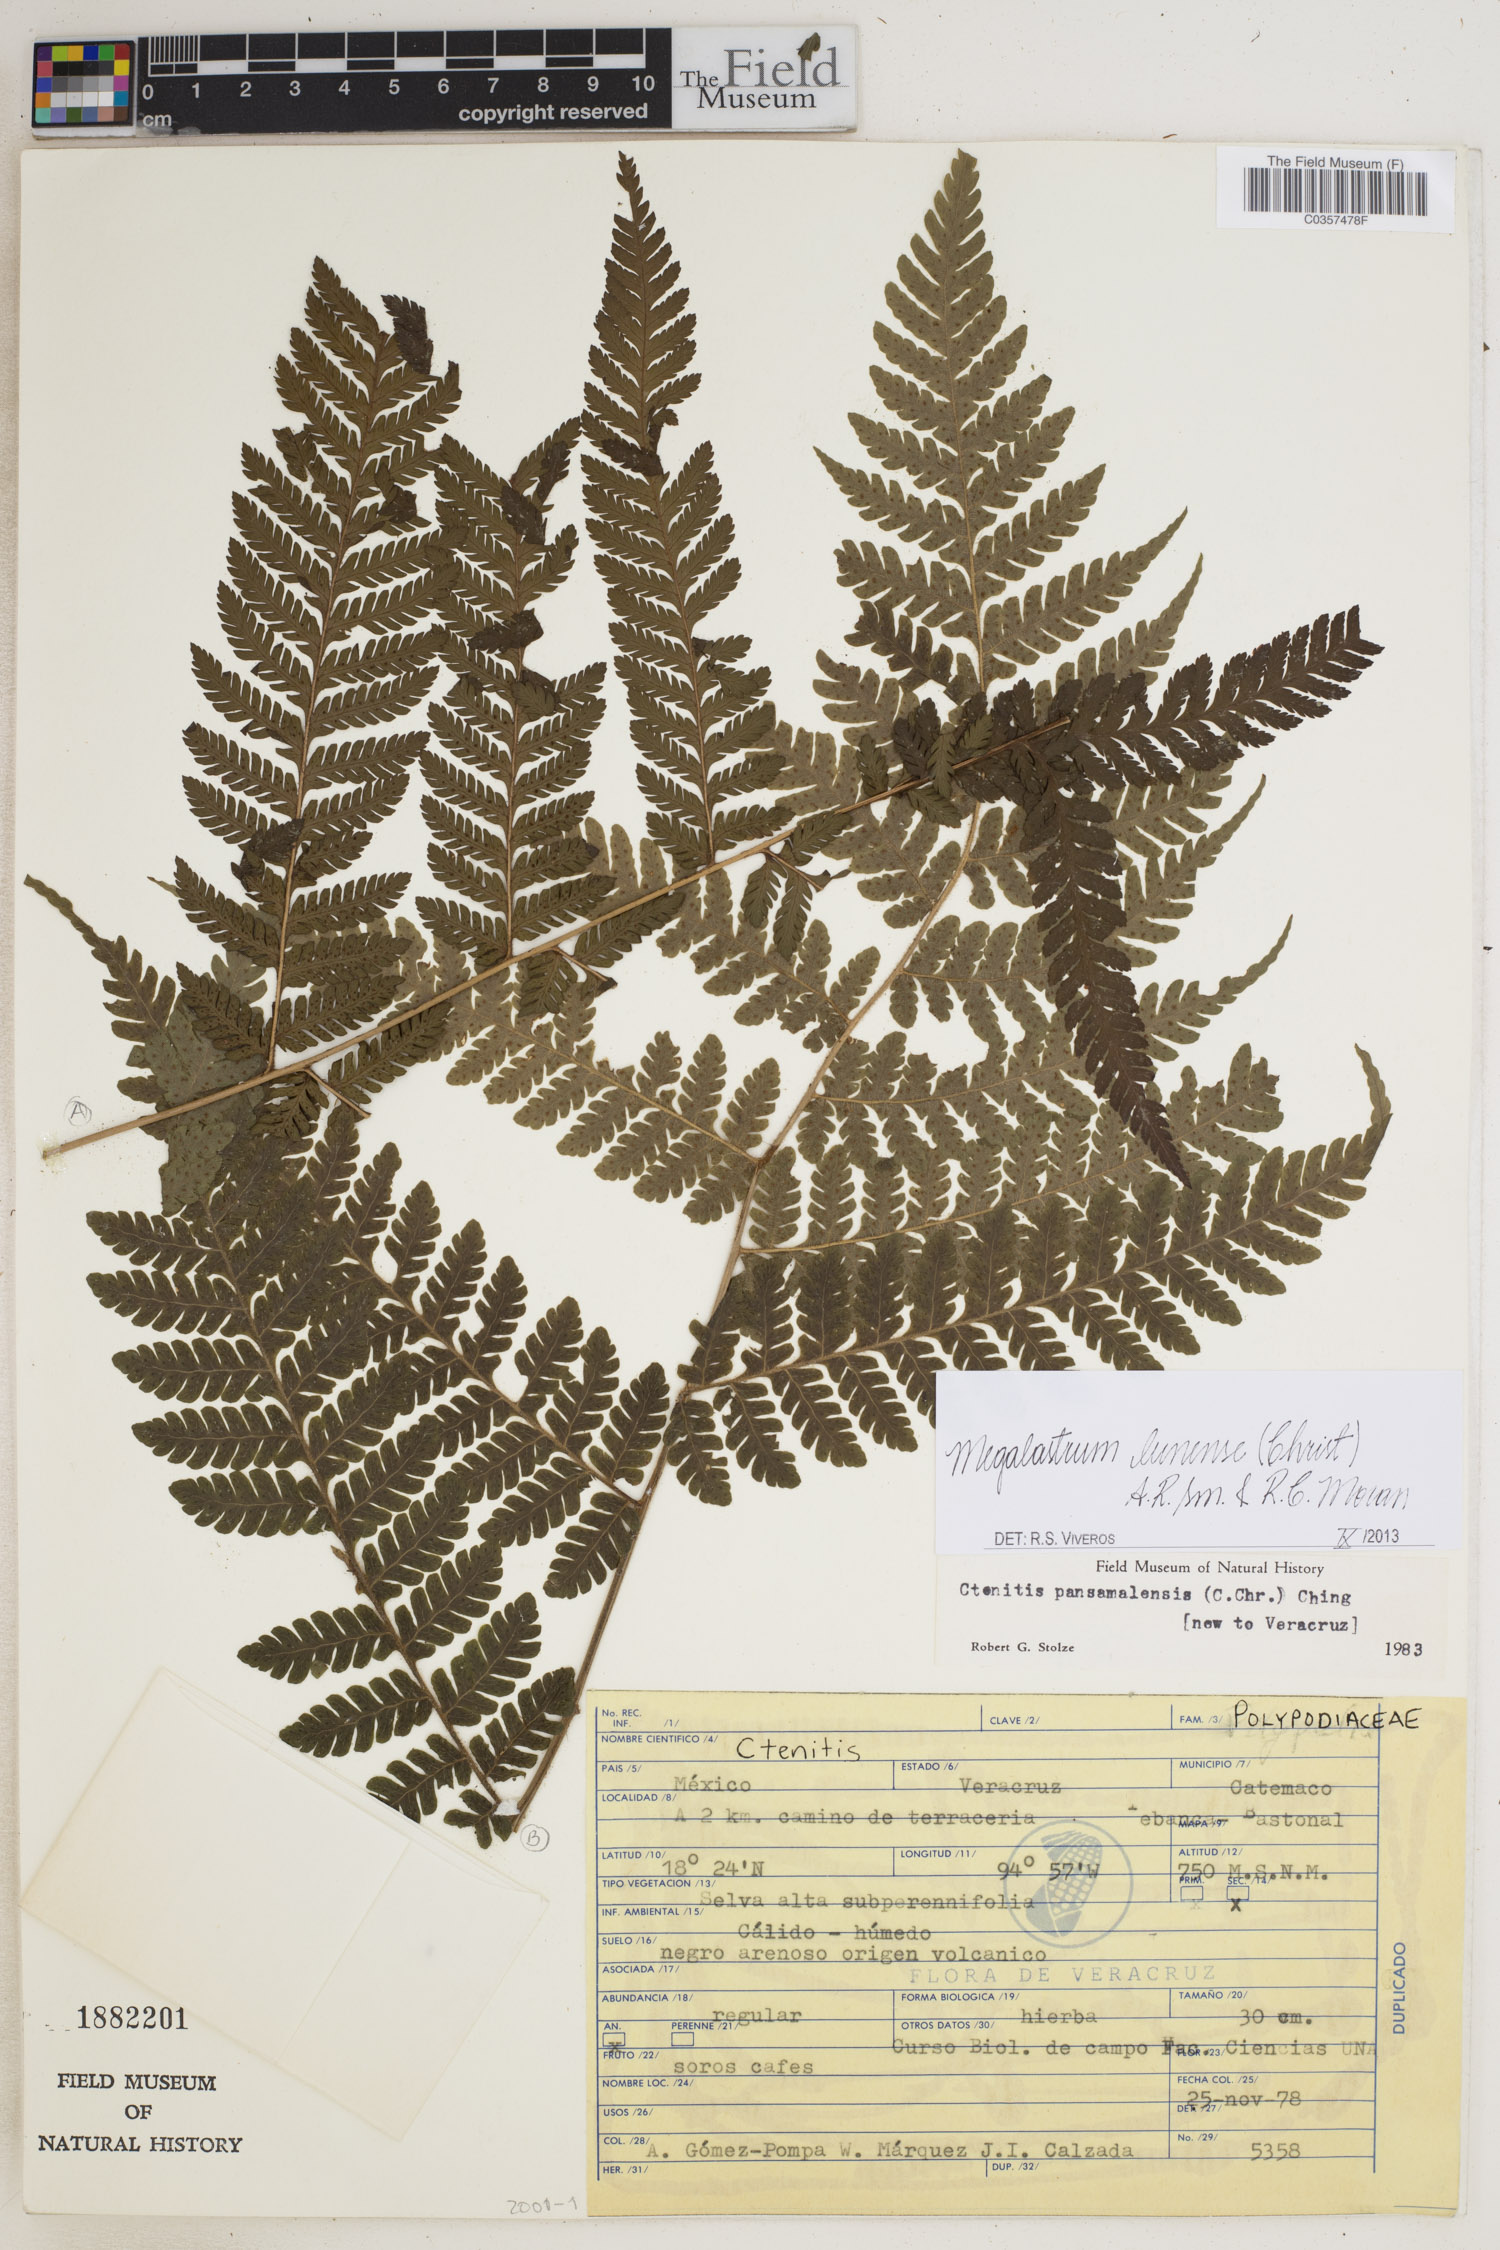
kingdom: Plantae
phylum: Tracheophyta
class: Polypodiopsida
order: Polypodiales
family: Dryopteridaceae
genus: Megalastrum
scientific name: Megalastrum lunense
